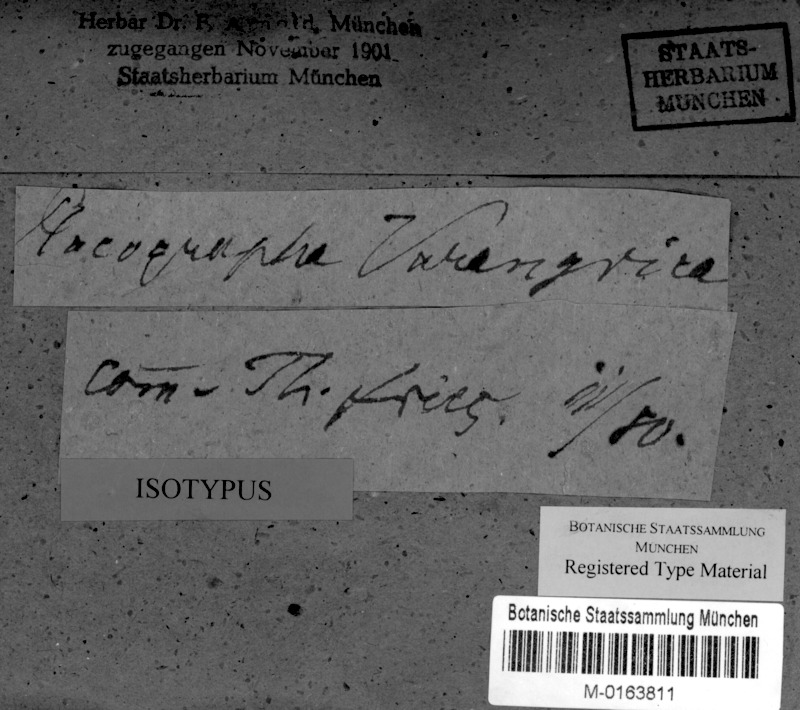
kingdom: Fungi
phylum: Ascomycota
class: Lecanoromycetes
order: Baeomycetales
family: Xylographaceae
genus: Lithographa
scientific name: Lithographa varangrica
